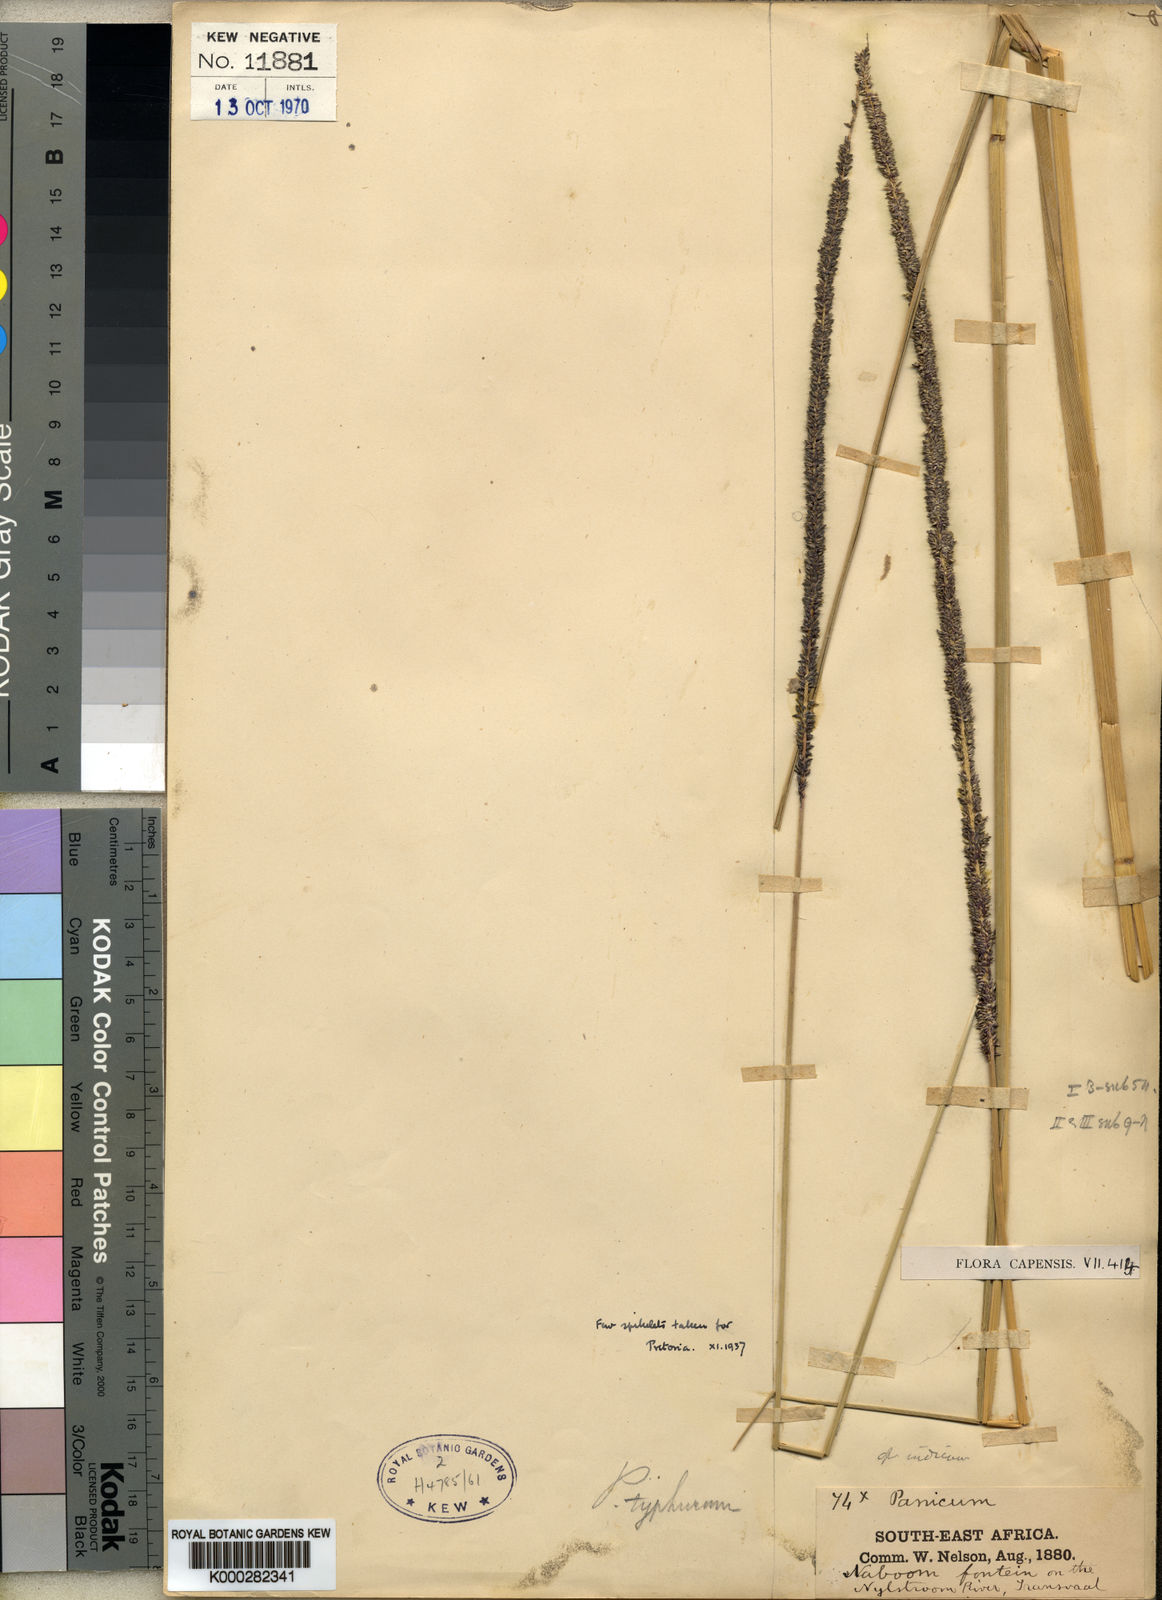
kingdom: Plantae
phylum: Tracheophyta
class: Liliopsida
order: Poales
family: Poaceae
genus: Sacciolepis
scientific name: Sacciolepis typhura
